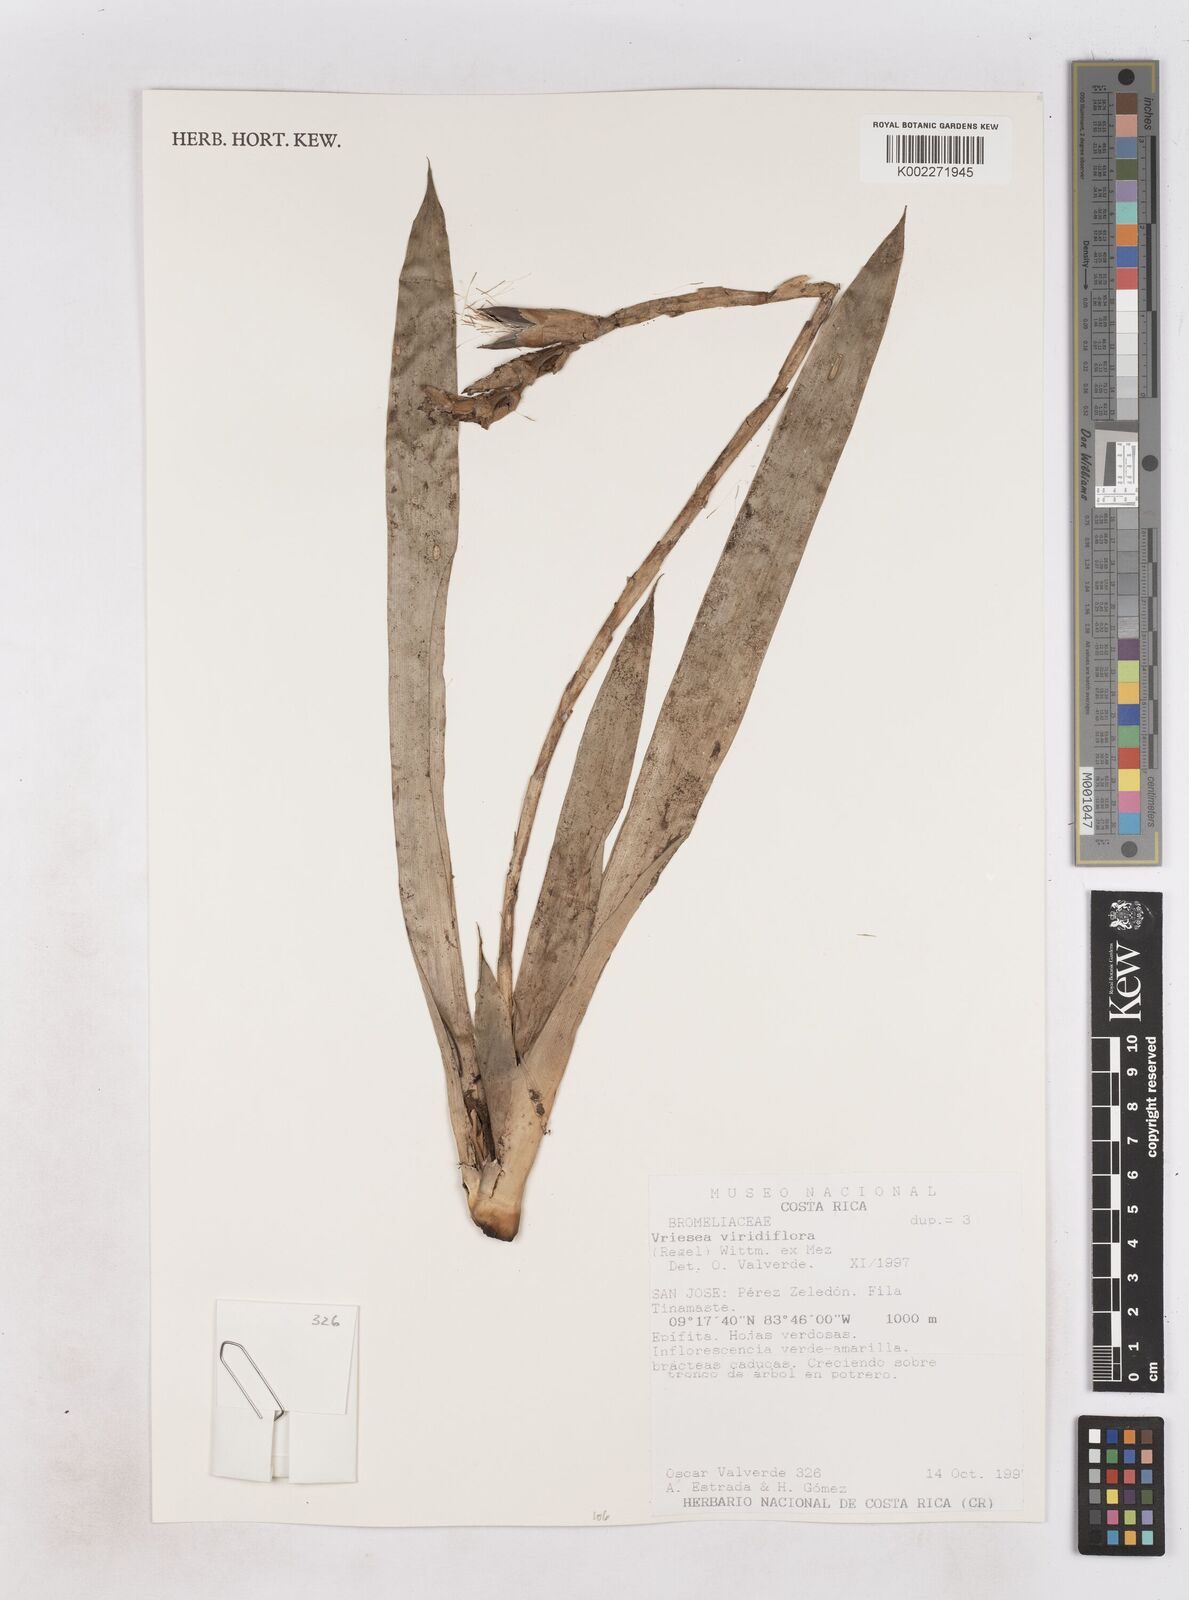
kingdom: Plantae
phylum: Tracheophyta
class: Liliopsida
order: Poales
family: Bromeliaceae
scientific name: Bromeliaceae
